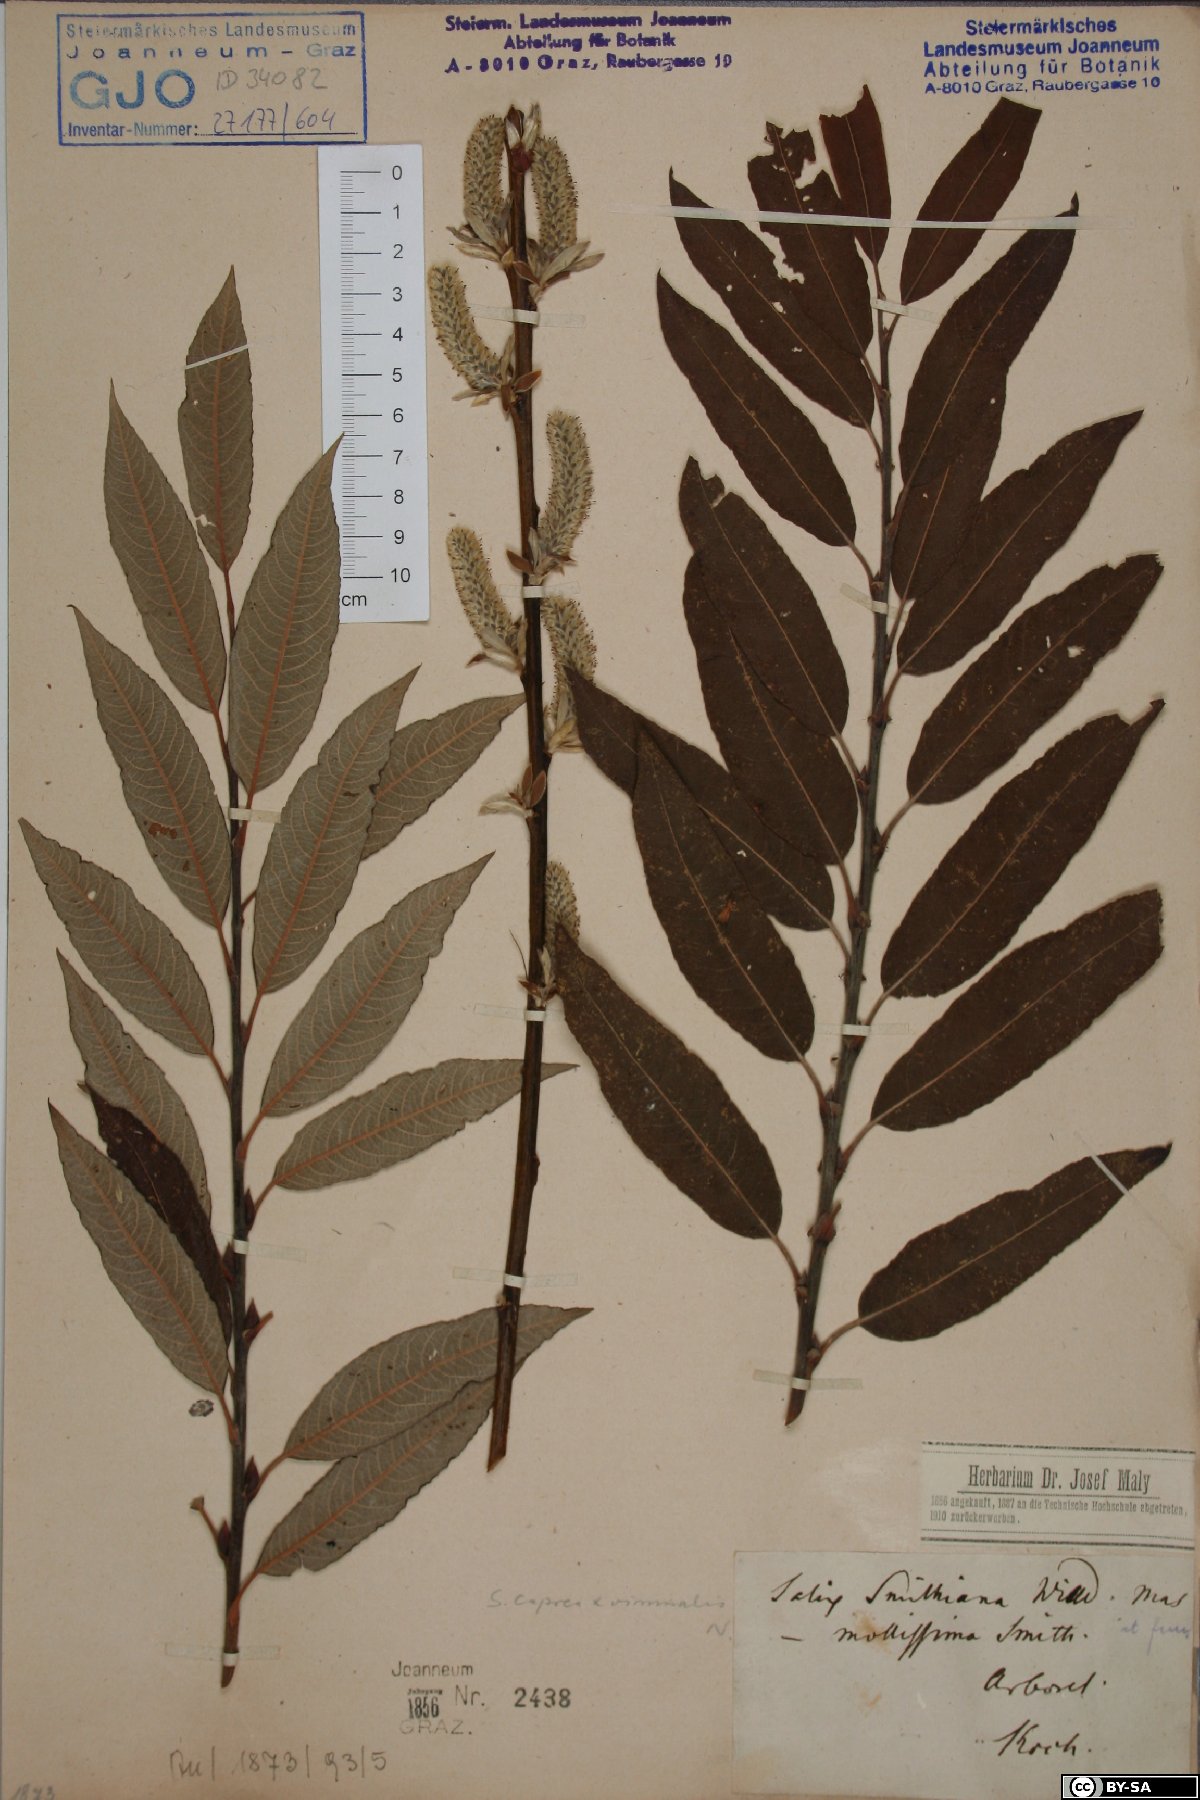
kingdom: Plantae
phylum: Tracheophyta
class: Magnoliopsida
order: Malpighiales
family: Salicaceae
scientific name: Salicaceae
